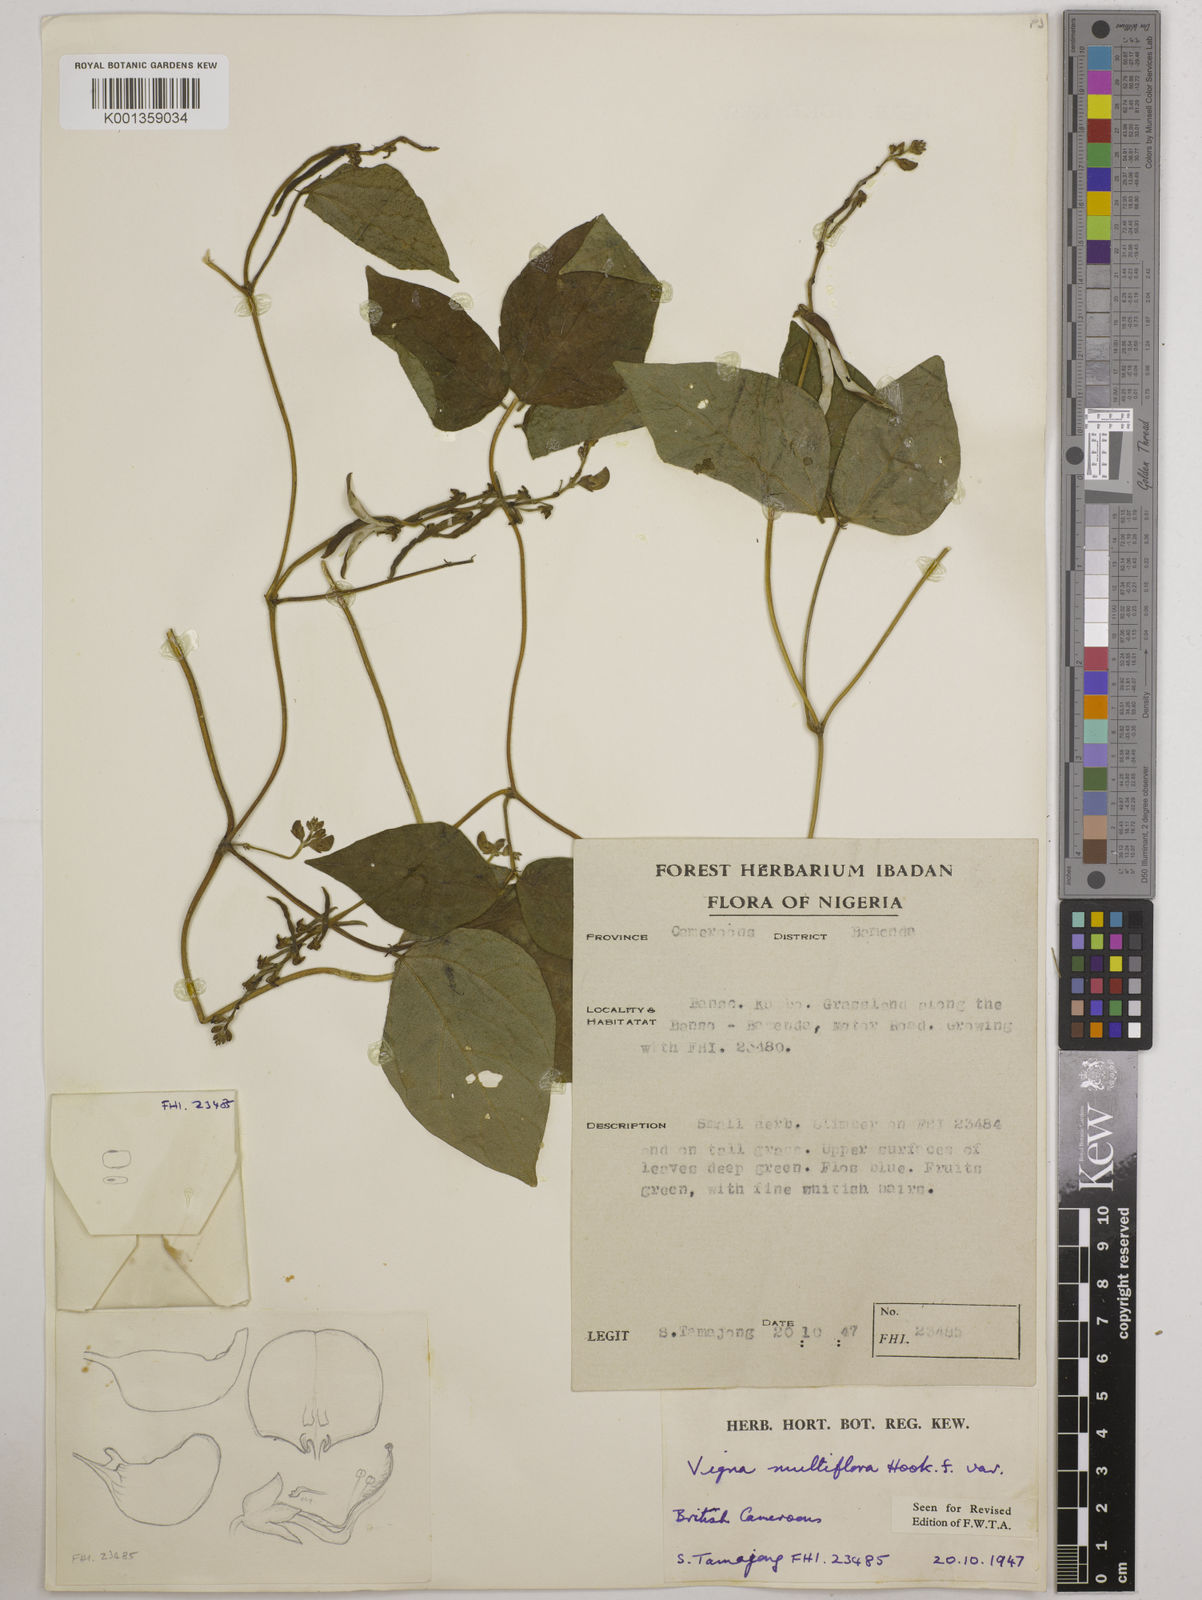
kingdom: Plantae
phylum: Tracheophyta
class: Magnoliopsida
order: Fabales
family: Fabaceae
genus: Vigna
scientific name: Vigna gracilis
